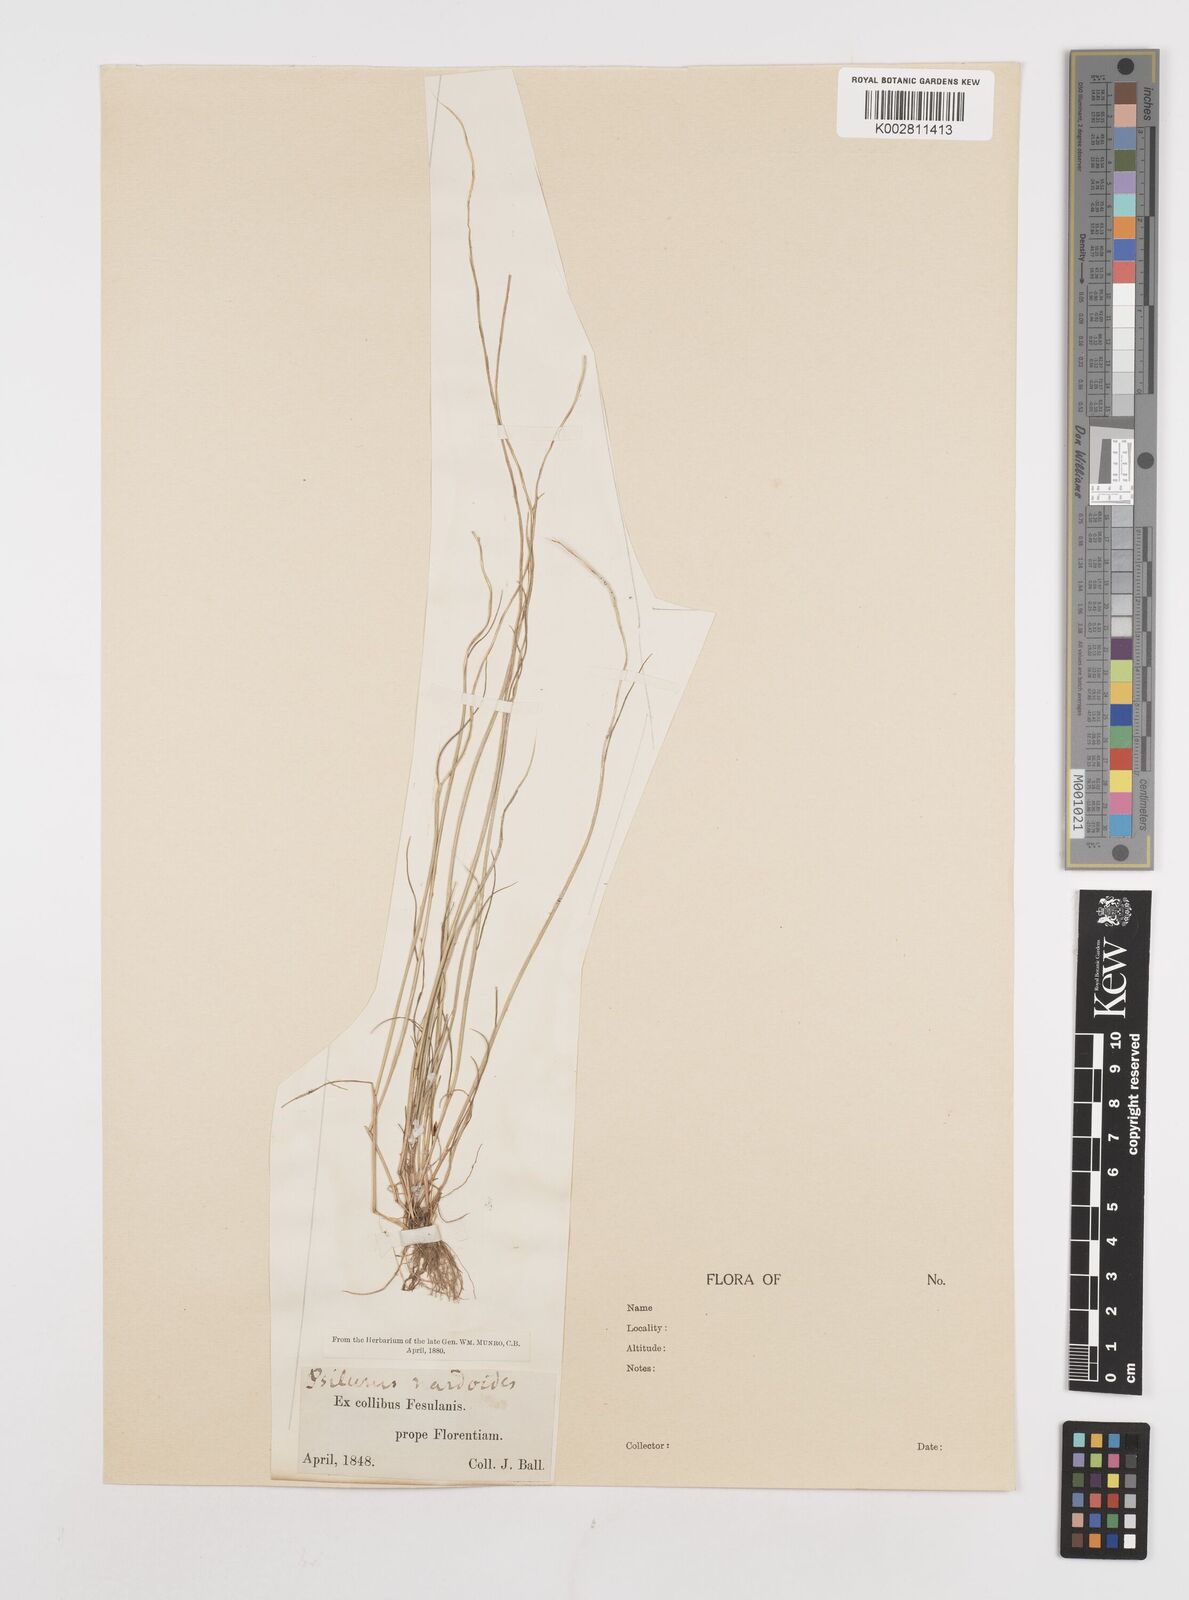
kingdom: Plantae
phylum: Tracheophyta
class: Liliopsida
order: Poales
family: Poaceae
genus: Festuca
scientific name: Festuca incurva
